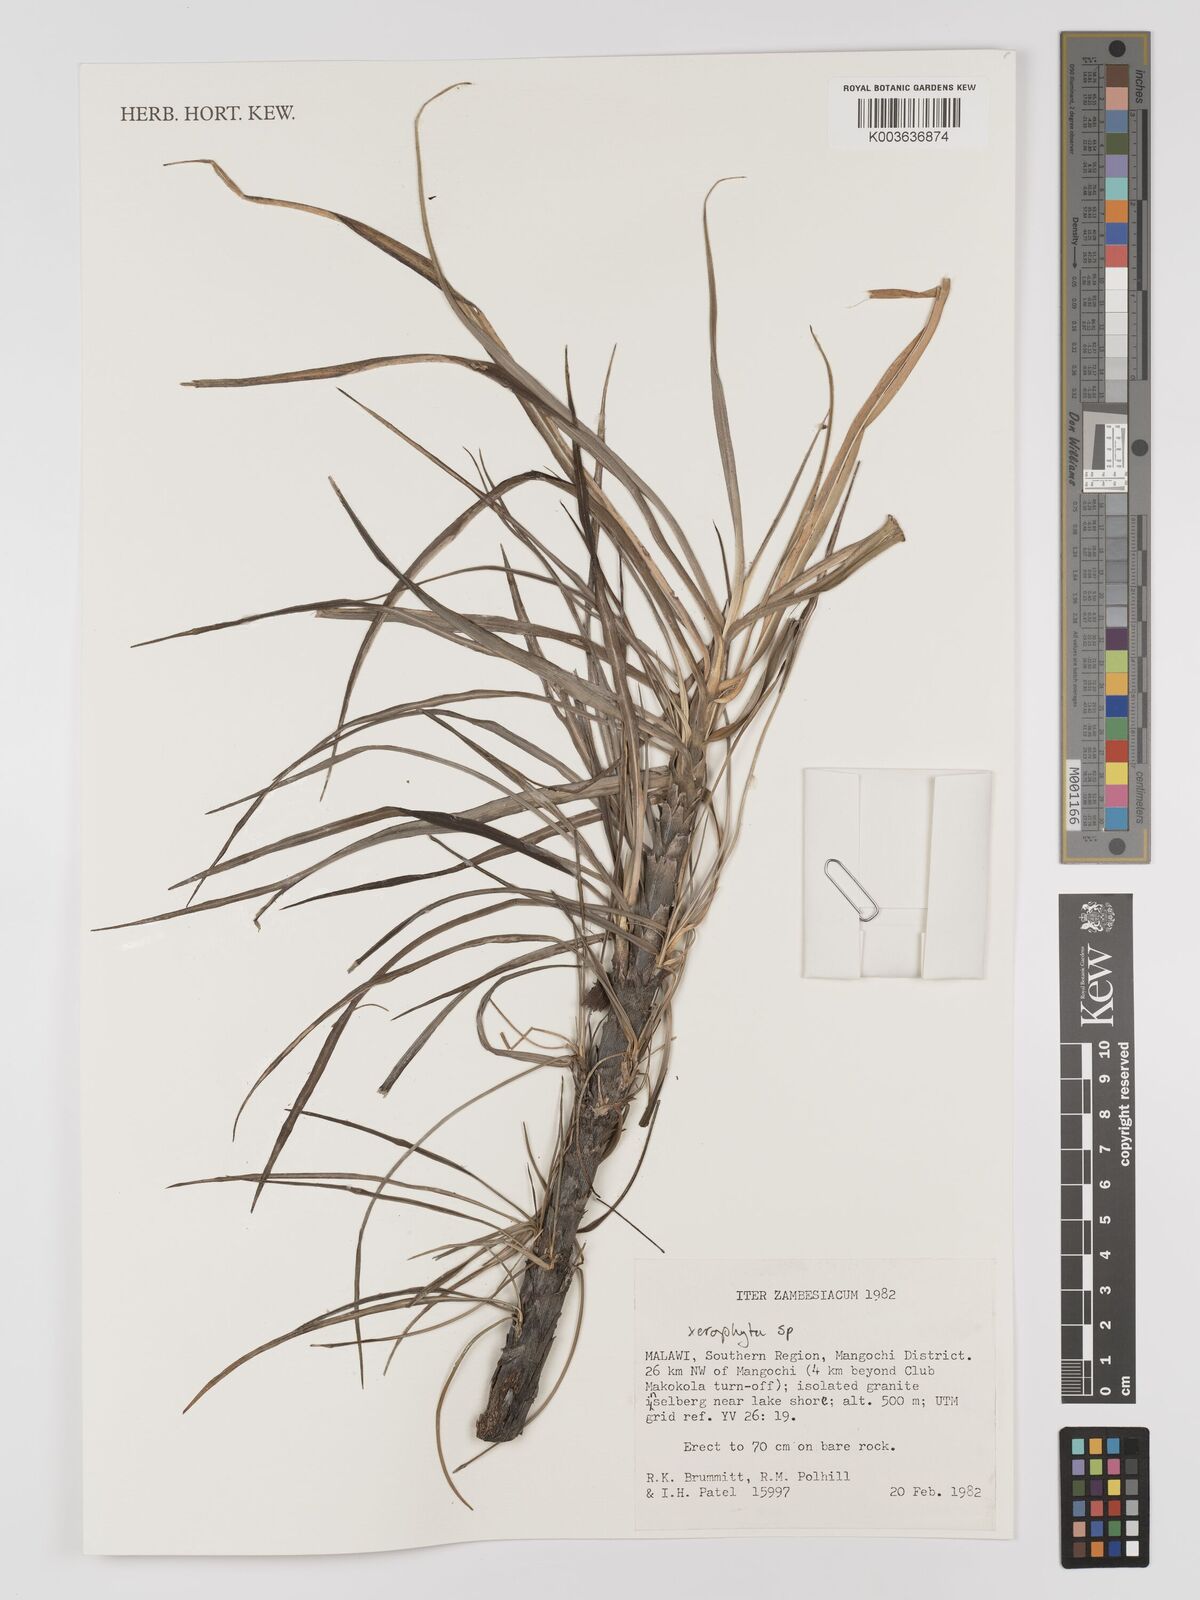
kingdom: Plantae
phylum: Tracheophyta
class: Liliopsida
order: Pandanales
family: Velloziaceae
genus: Xerophyta
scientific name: Xerophyta
